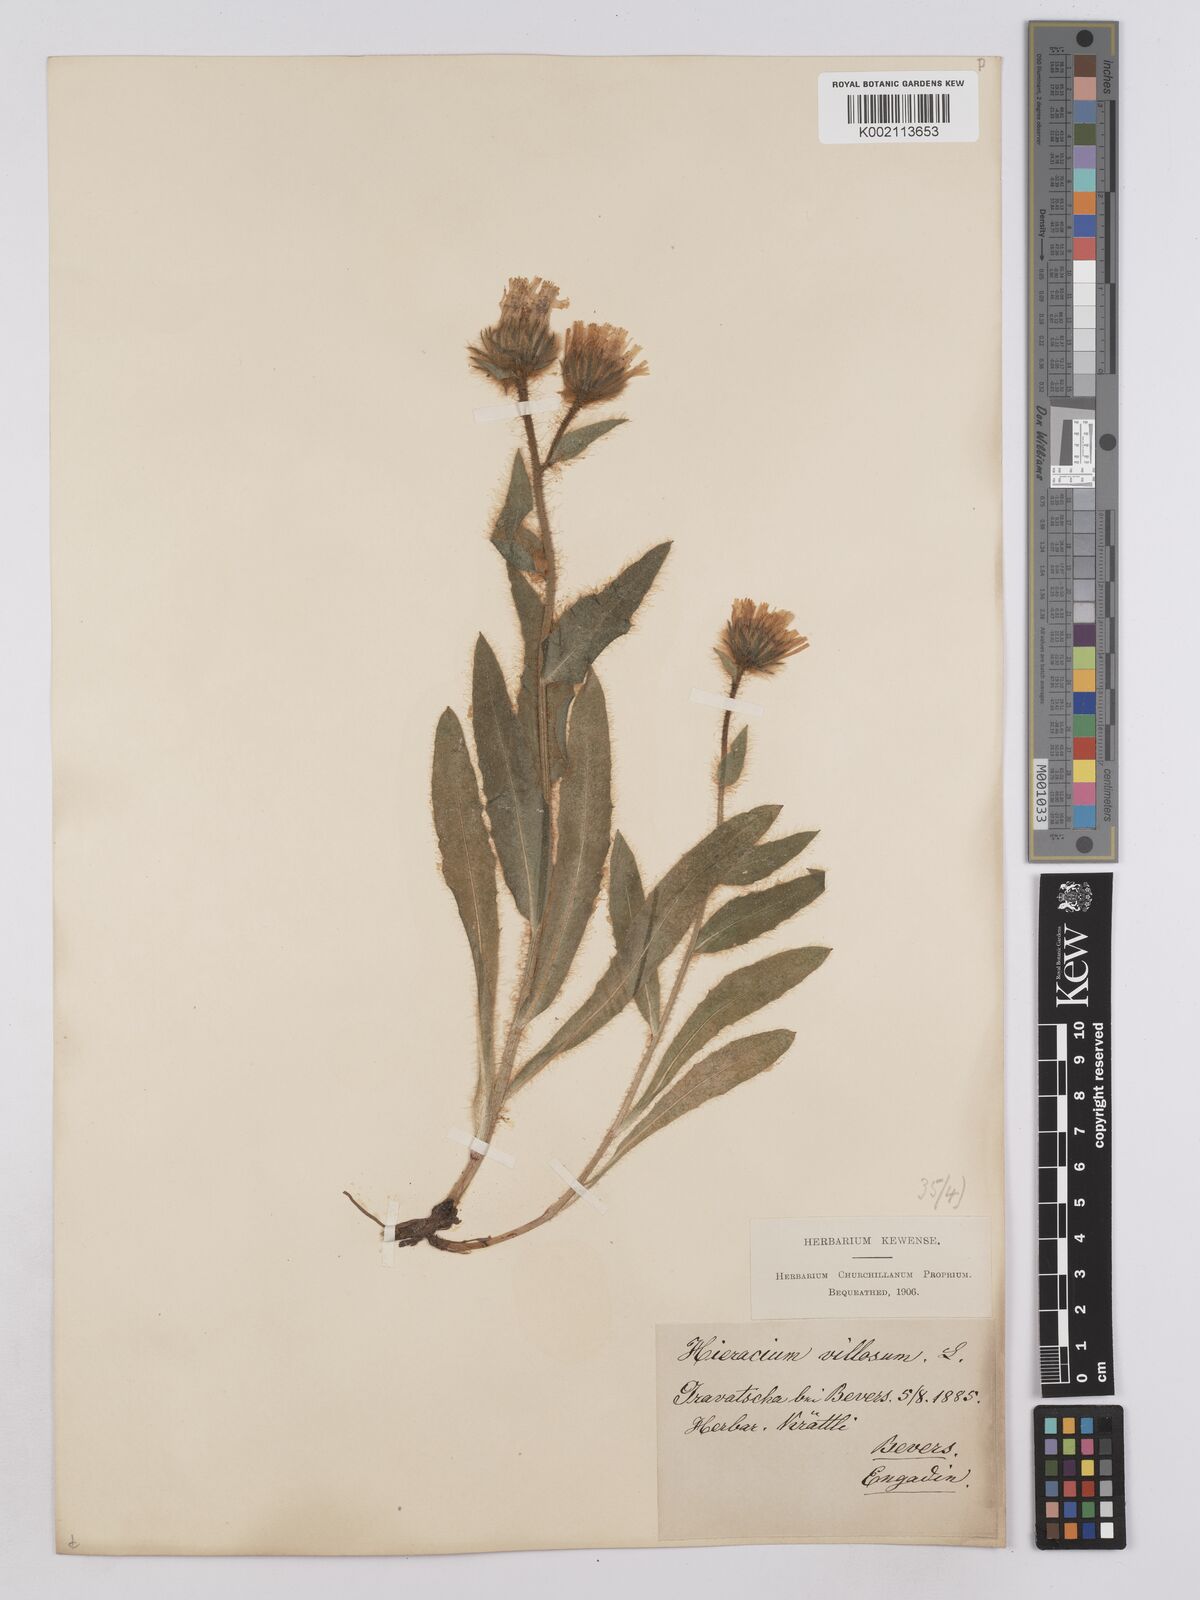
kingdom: Plantae
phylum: Tracheophyta
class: Magnoliopsida
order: Asterales
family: Asteraceae
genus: Hieracium
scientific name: Hieracium villosum
